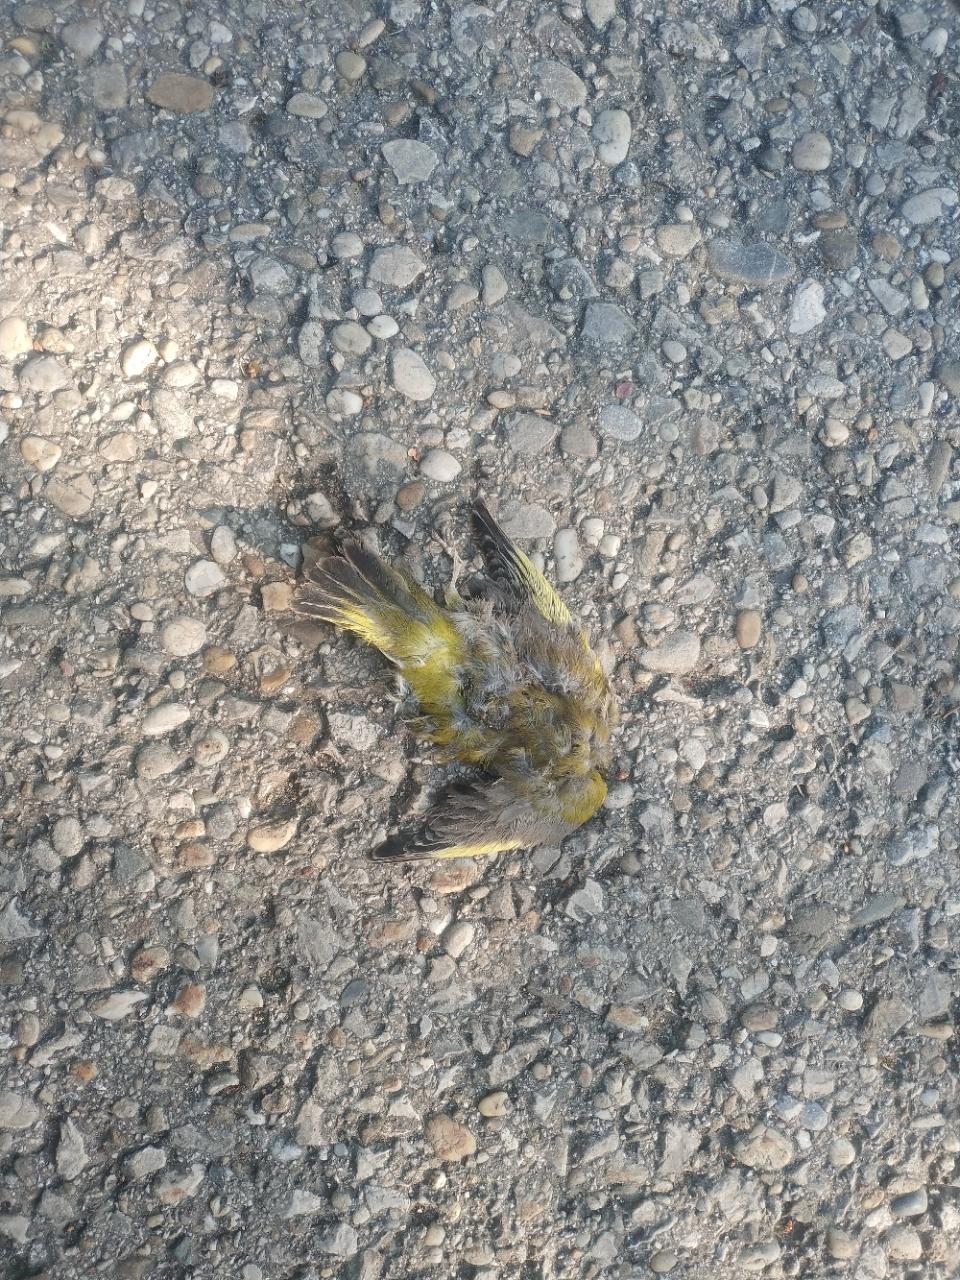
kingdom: Plantae
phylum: Tracheophyta
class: Liliopsida
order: Poales
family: Poaceae
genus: Chloris
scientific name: Chloris chloris
